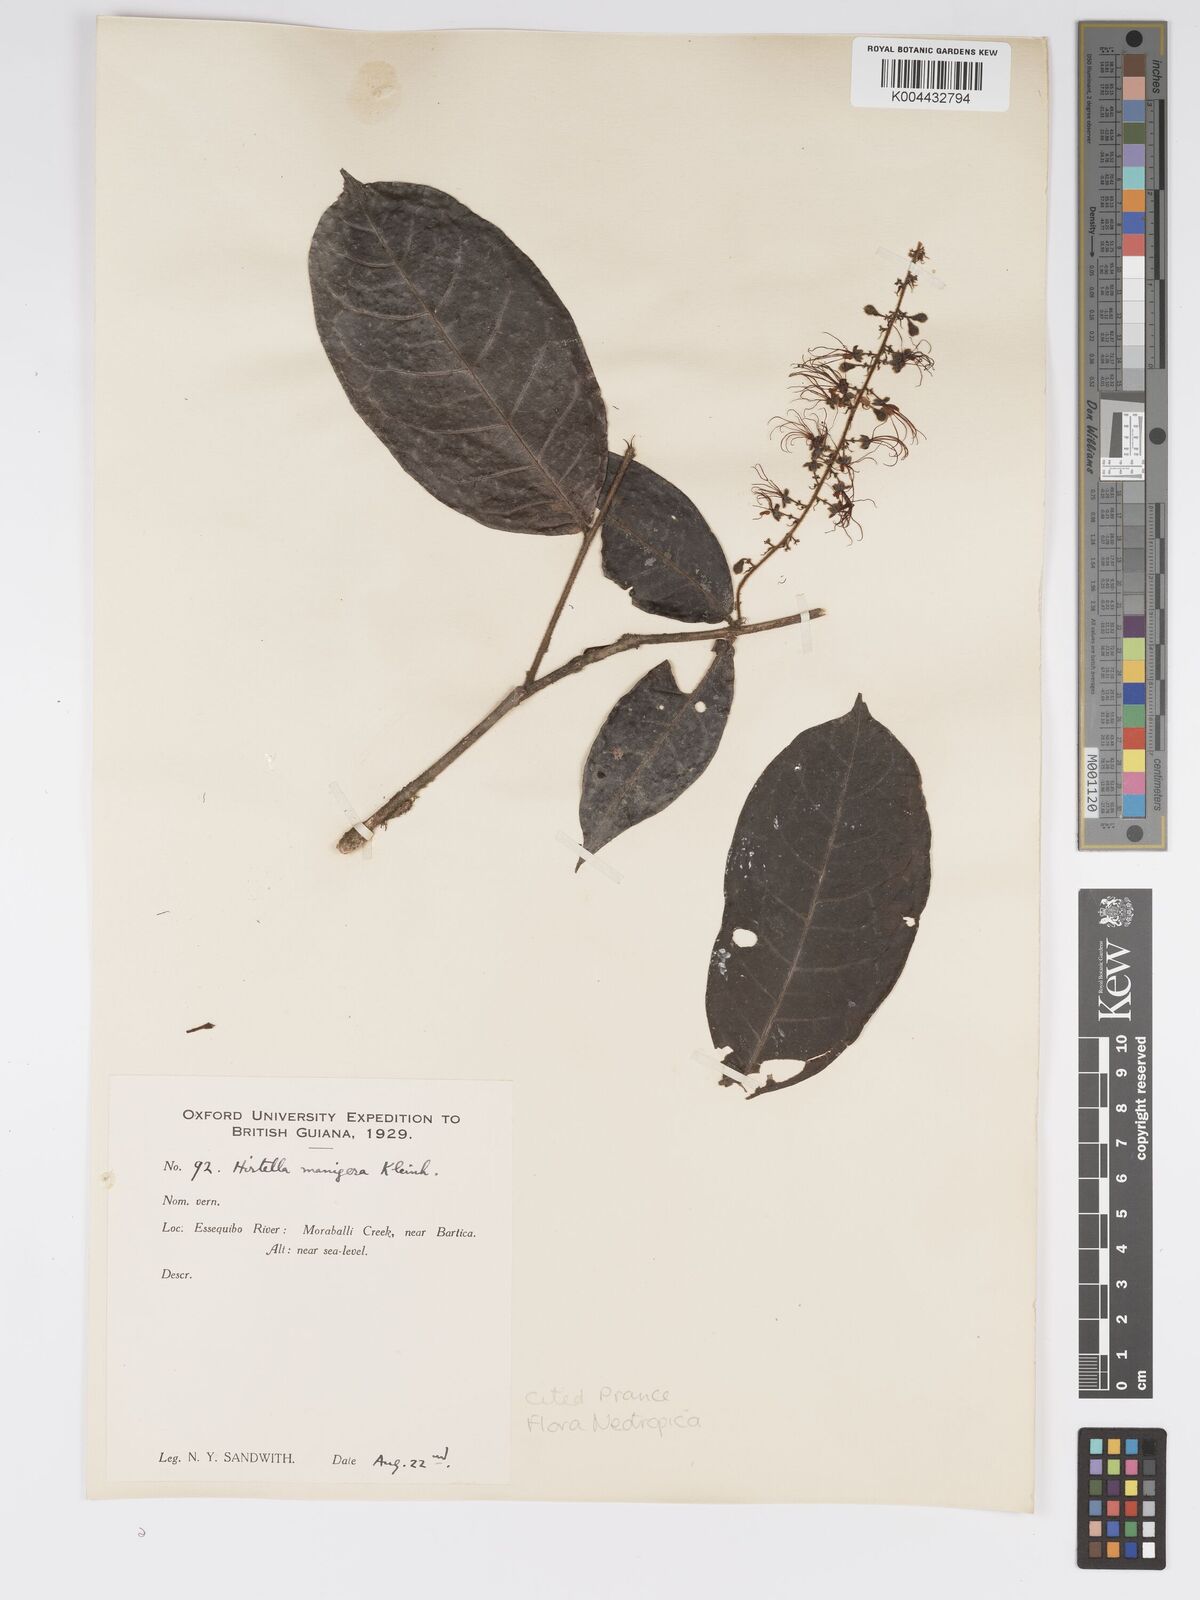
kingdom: Plantae
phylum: Tracheophyta
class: Magnoliopsida
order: Malpighiales
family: Chrysobalanaceae
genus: Hirtella
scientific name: Hirtella silicea
